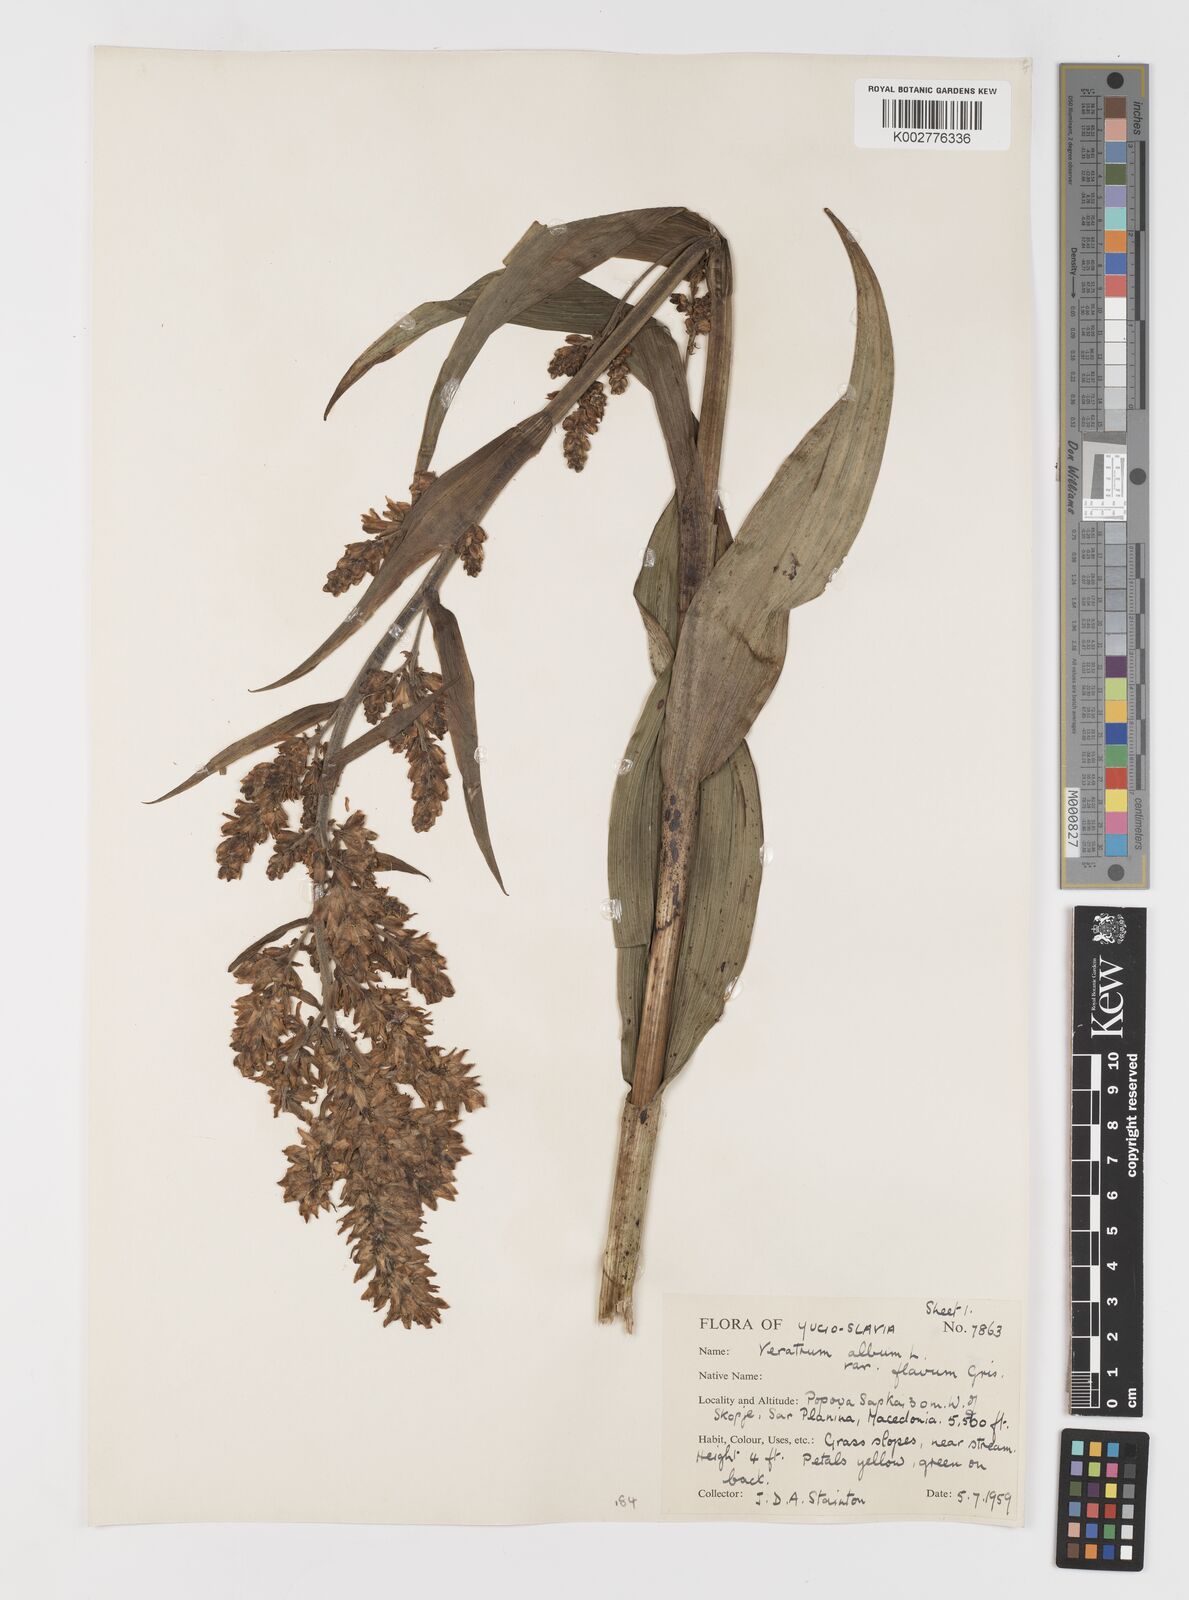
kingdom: Plantae
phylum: Tracheophyta
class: Liliopsida
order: Liliales
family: Melanthiaceae
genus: Veratrum
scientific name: Veratrum album
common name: White veratrum
